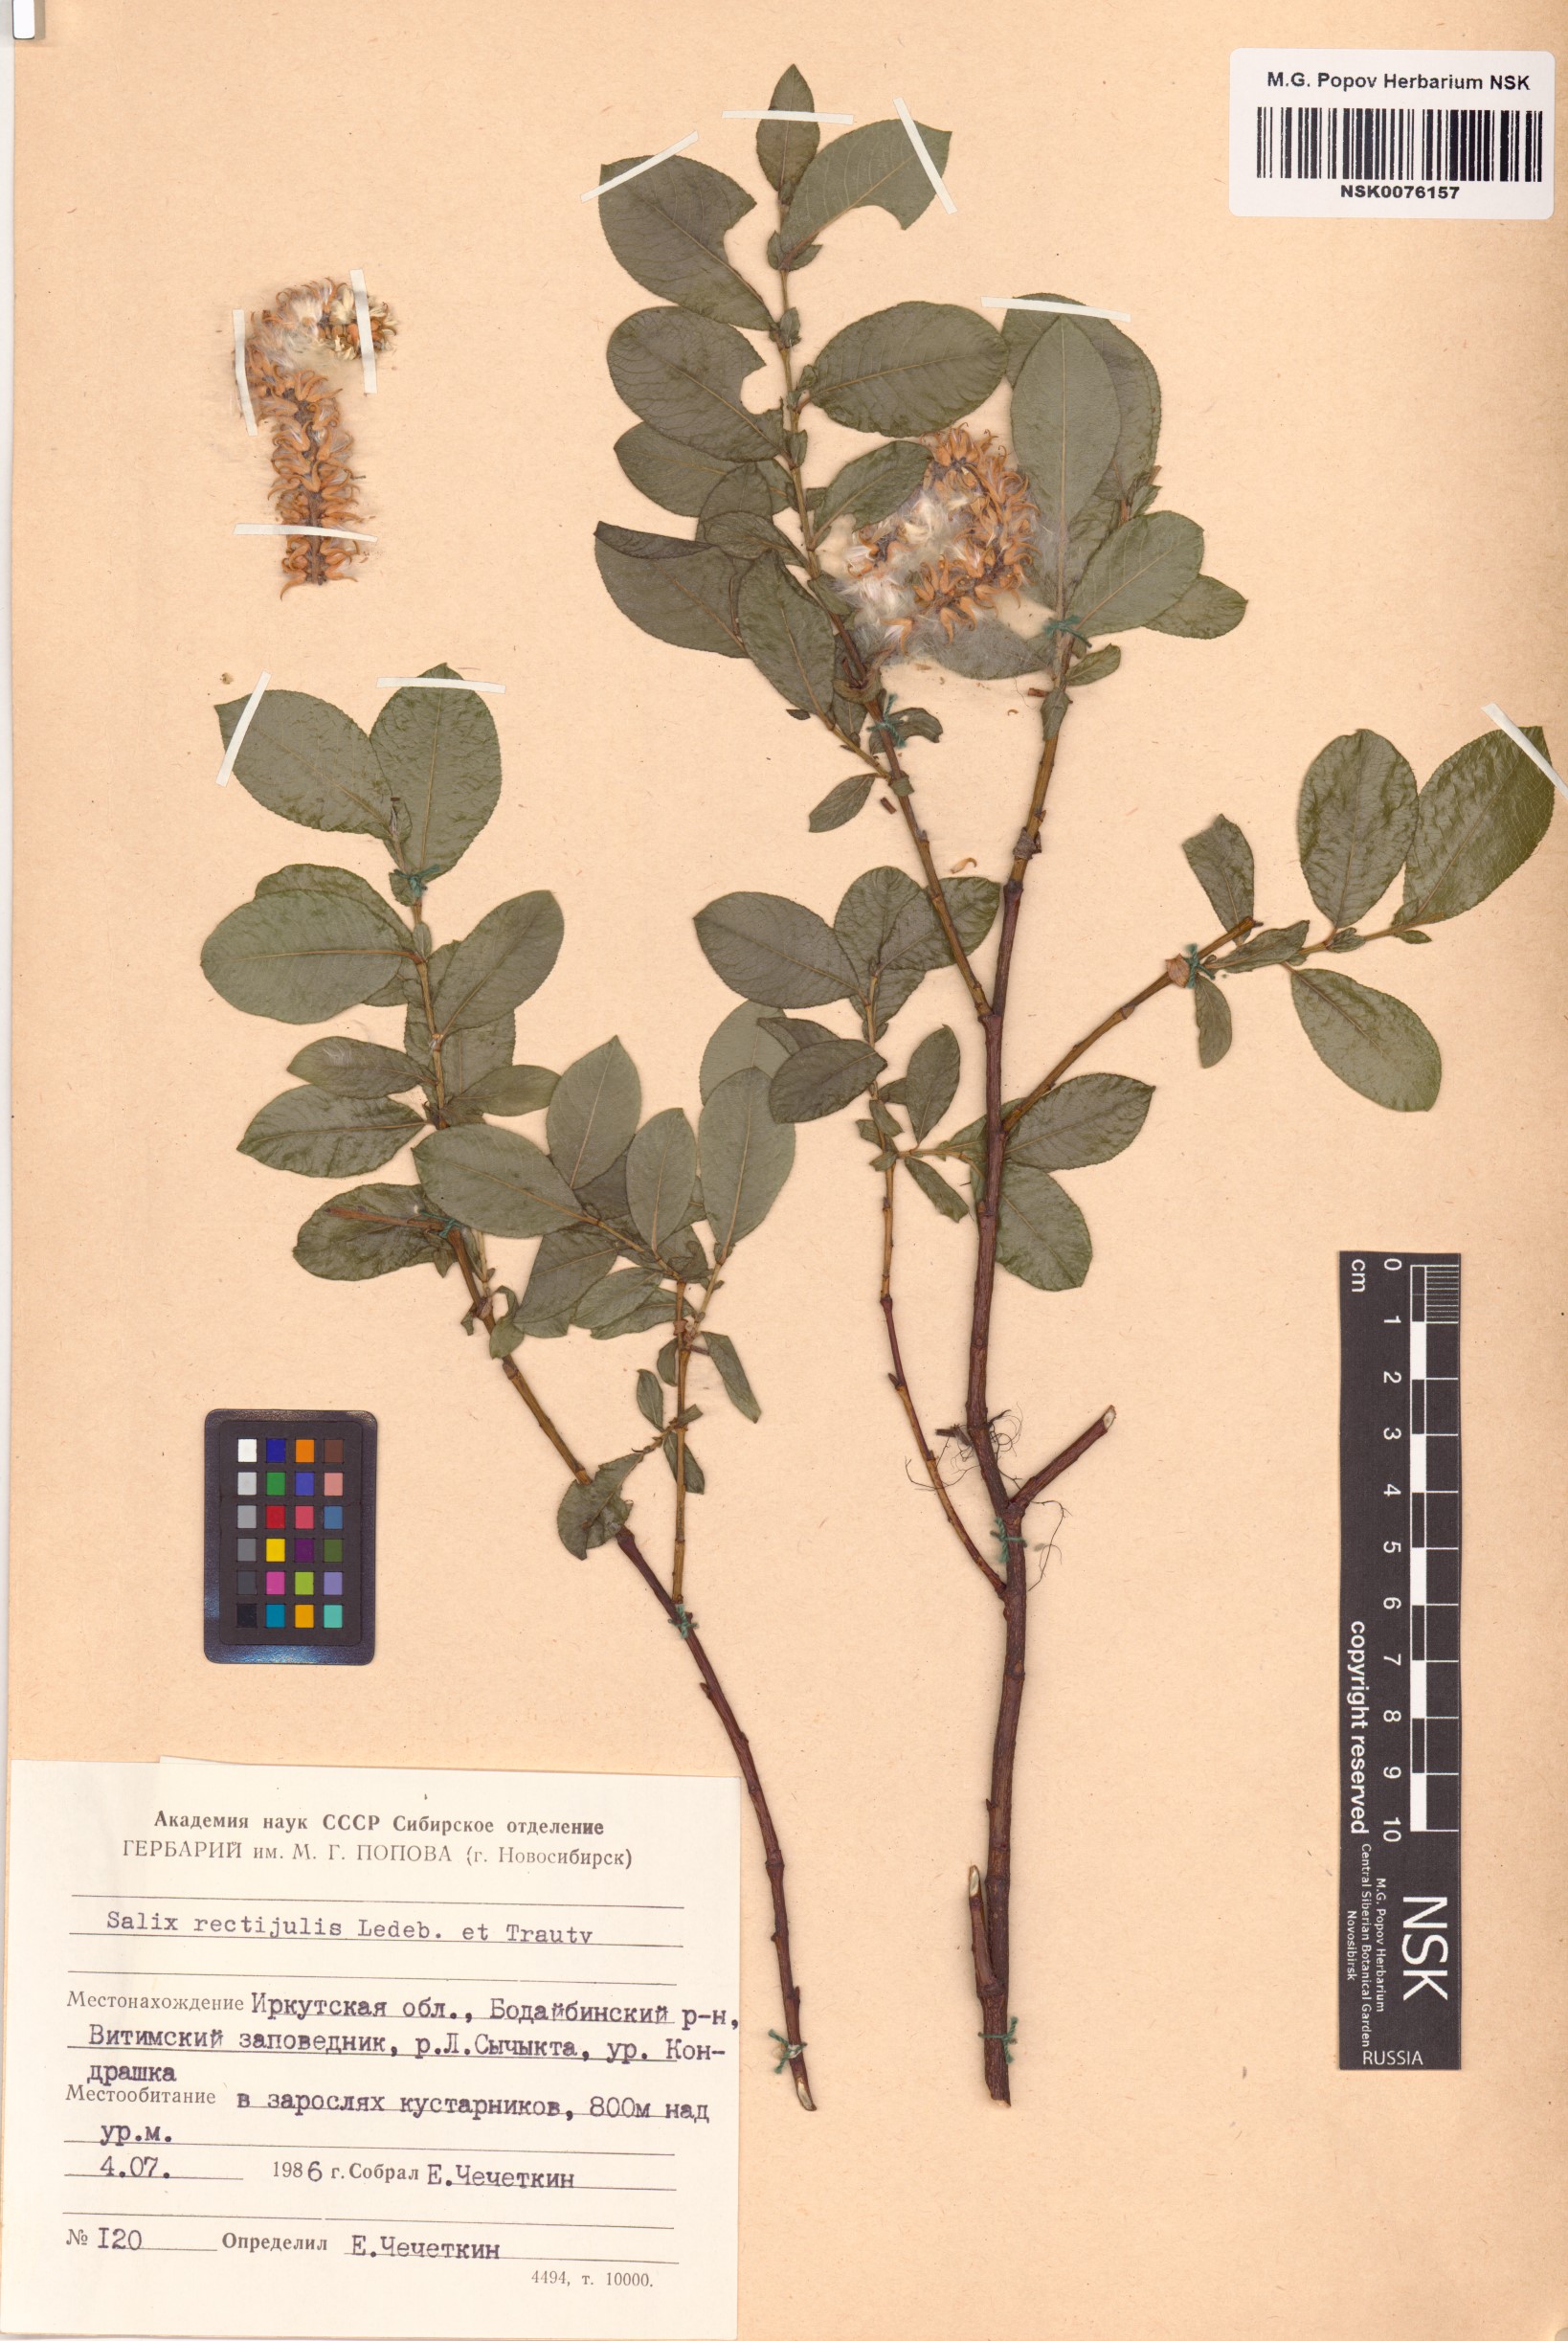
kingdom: Plantae
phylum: Tracheophyta
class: Magnoliopsida
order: Malpighiales
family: Salicaceae
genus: Salix
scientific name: Salix rectijulis
